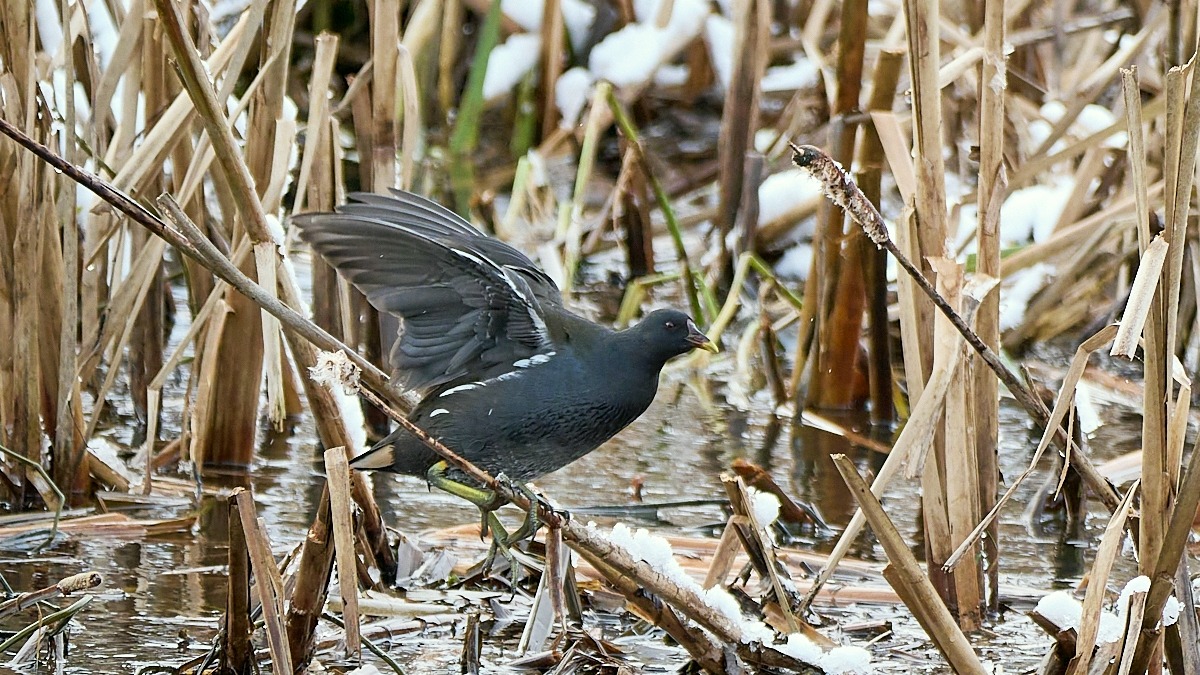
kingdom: Animalia
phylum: Chordata
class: Aves
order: Gruiformes
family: Rallidae
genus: Gallinula
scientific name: Gallinula chloropus
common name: Grønbenet rørhøne
